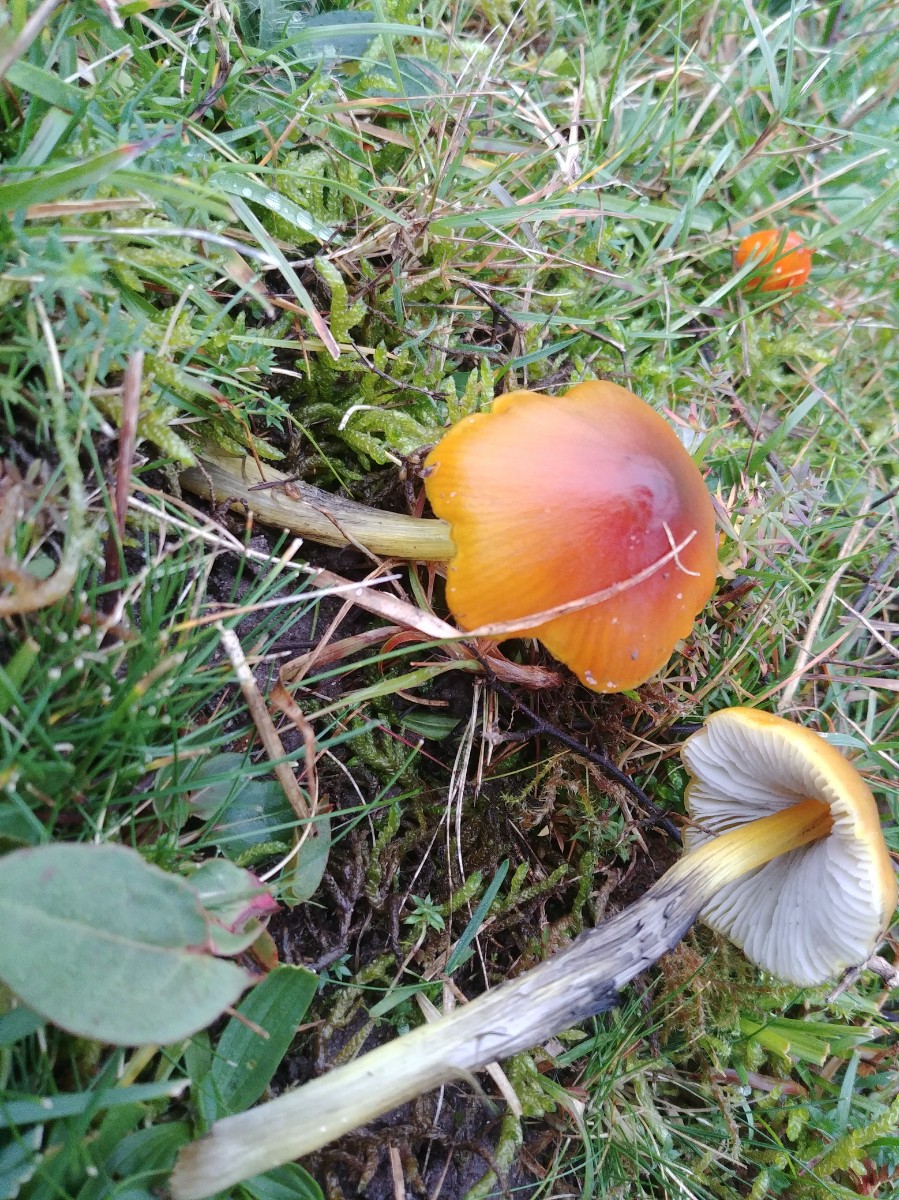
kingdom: Fungi
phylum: Basidiomycota
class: Agaricomycetes
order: Agaricales
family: Hygrophoraceae
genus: Hygrocybe
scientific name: Hygrocybe conica
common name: kegle-vokshat
